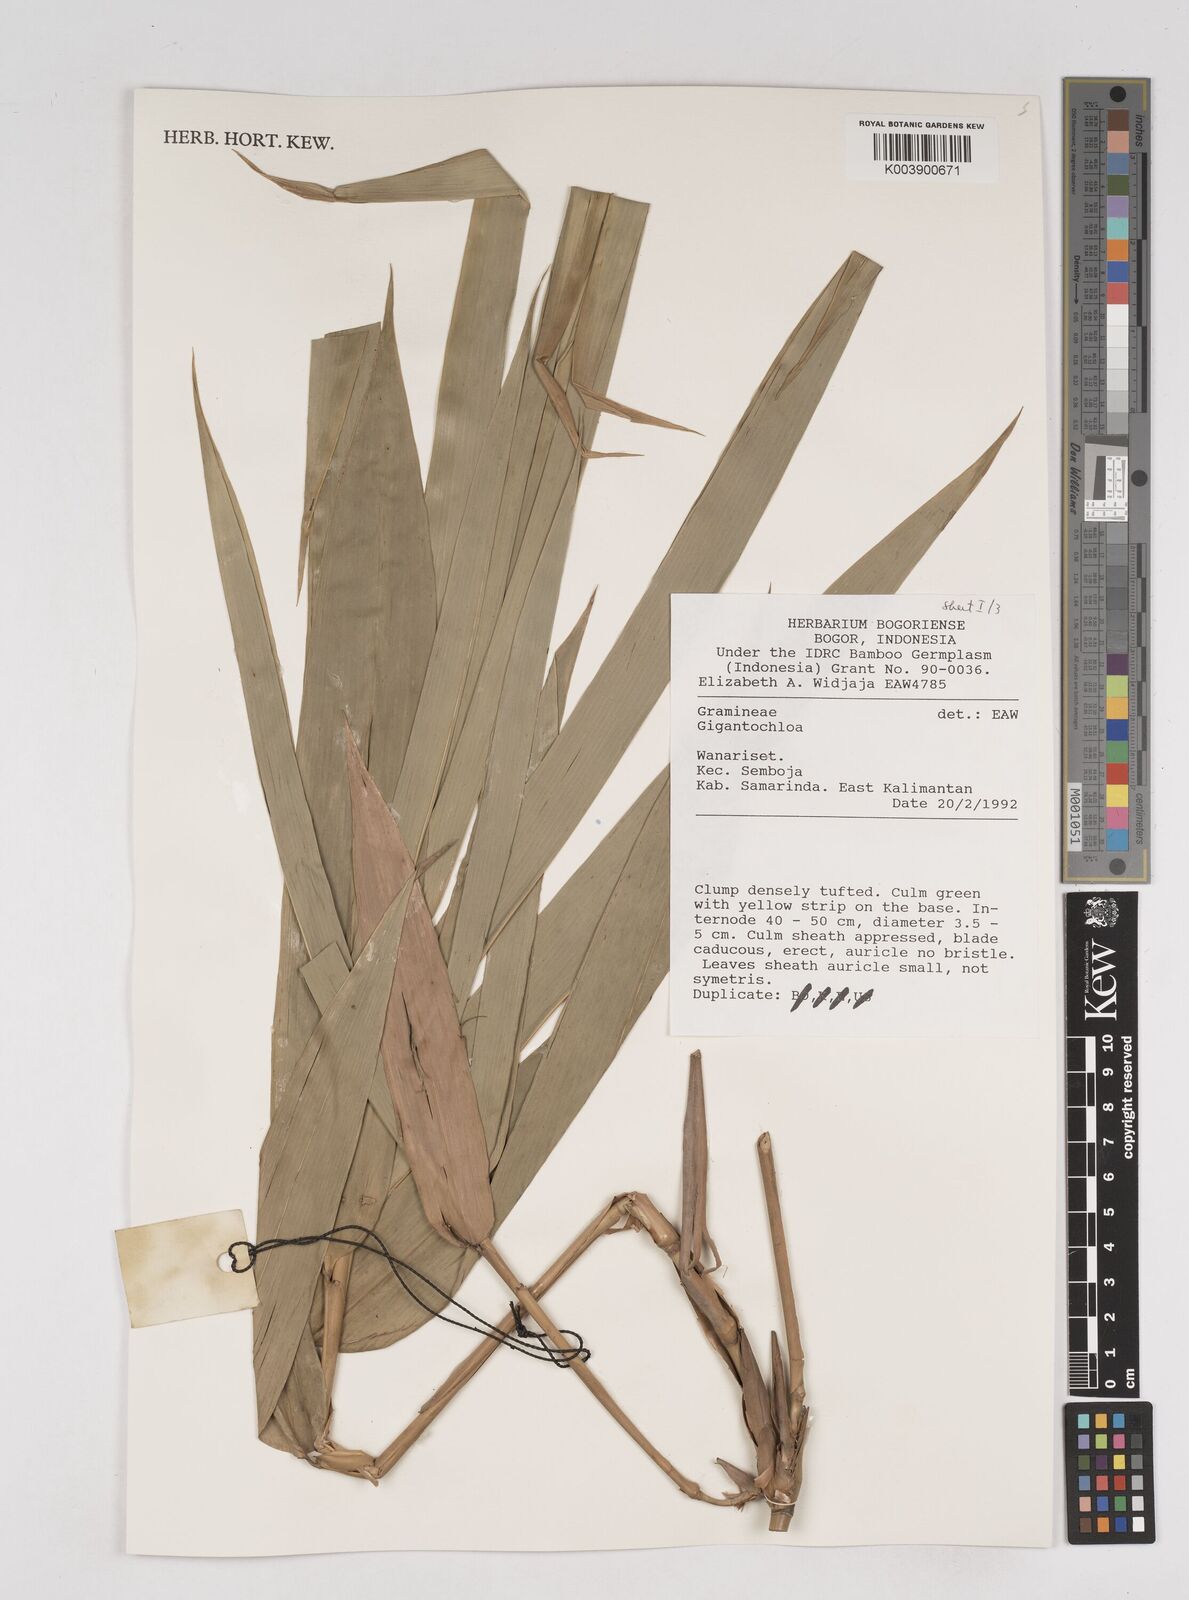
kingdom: Plantae
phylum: Tracheophyta
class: Liliopsida
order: Poales
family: Poaceae
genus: Gigantochloa
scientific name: Gigantochloa
